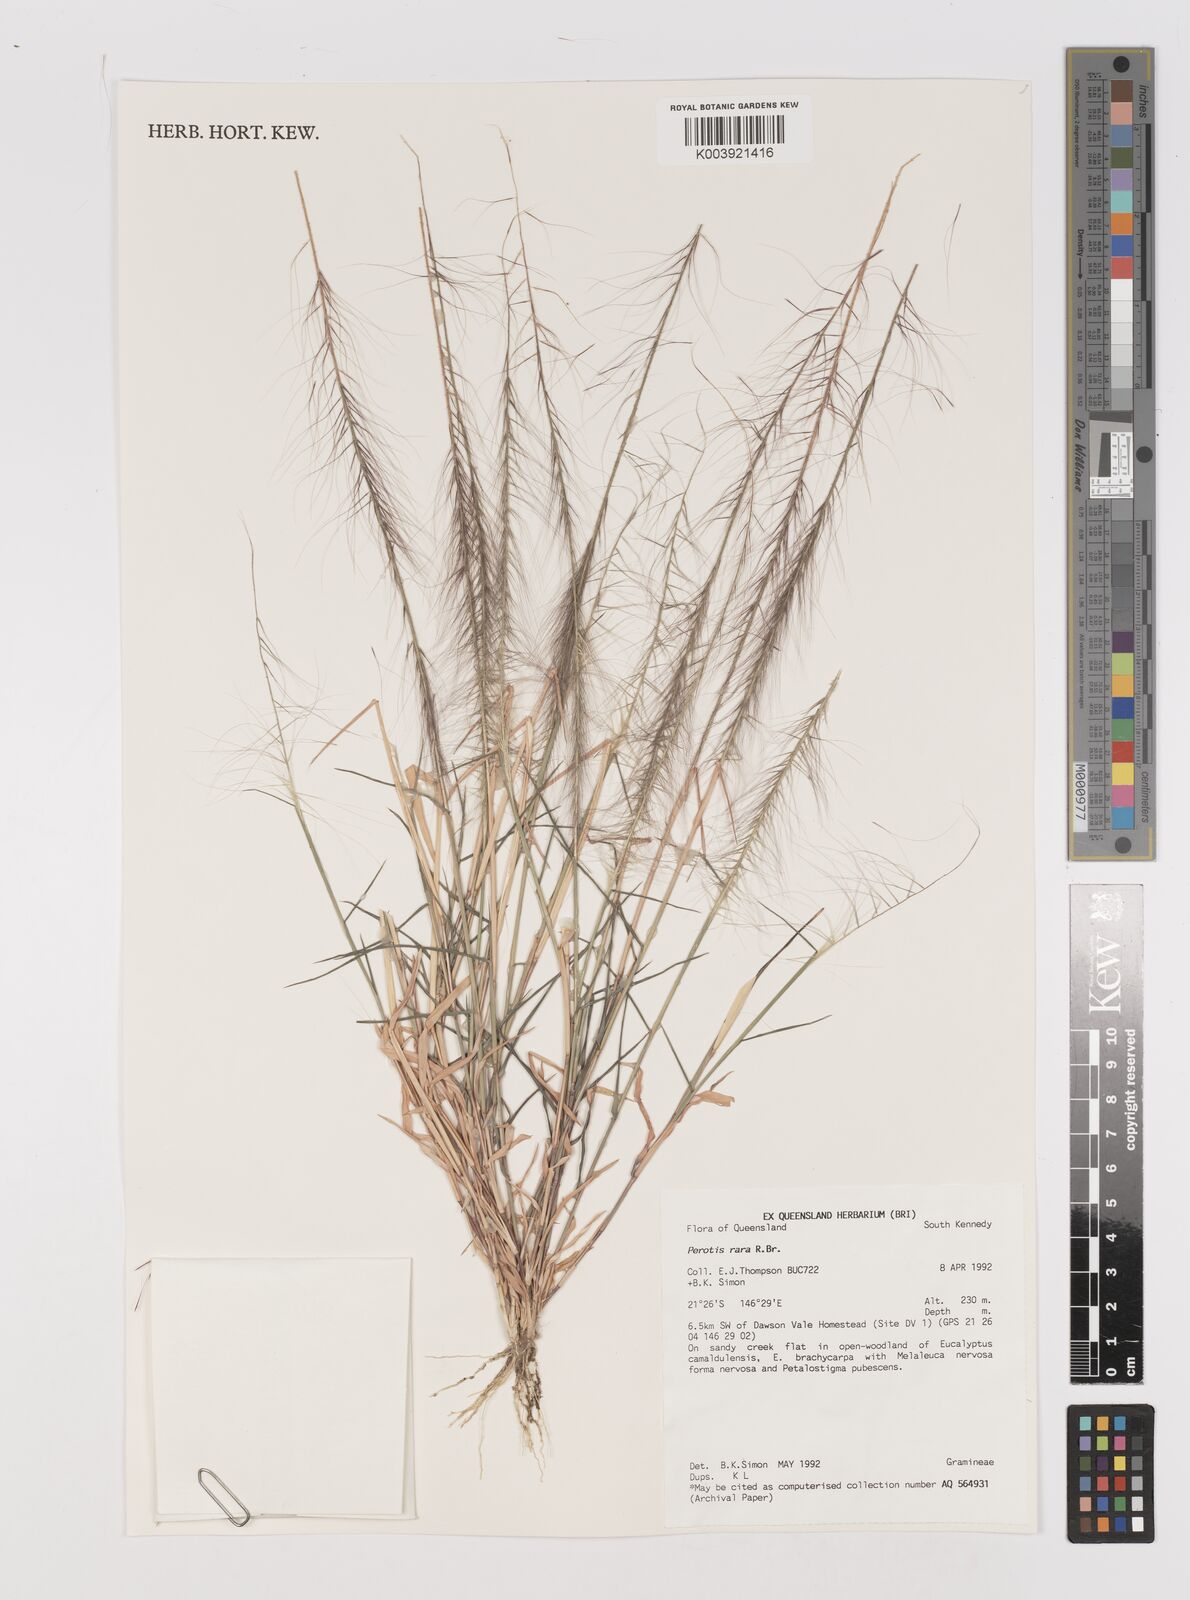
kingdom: Plantae
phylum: Tracheophyta
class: Liliopsida
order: Poales
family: Poaceae
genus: Perotis
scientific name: Perotis rara
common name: Comet grass
